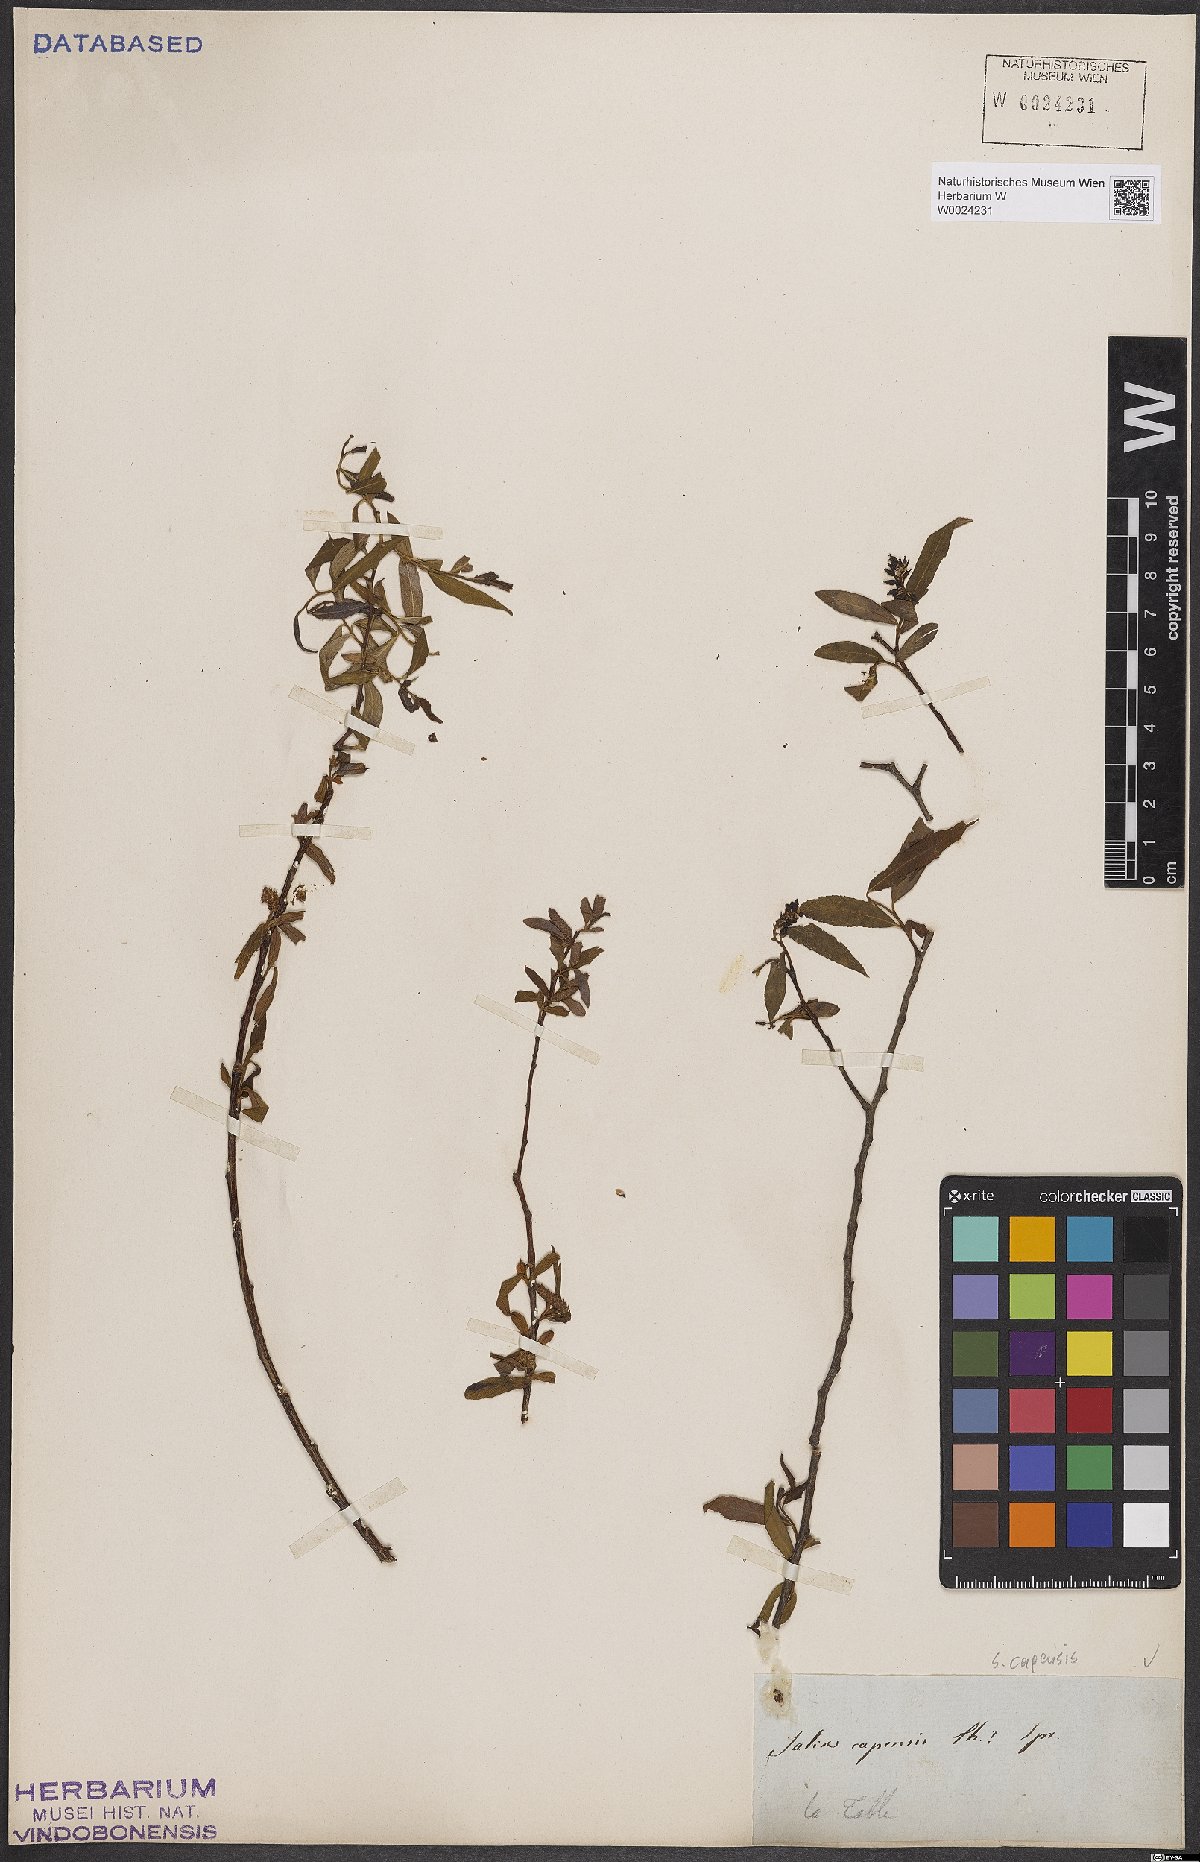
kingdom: Plantae
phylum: Tracheophyta
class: Magnoliopsida
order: Malpighiales
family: Salicaceae
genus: Salix
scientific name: Salix mucronata
